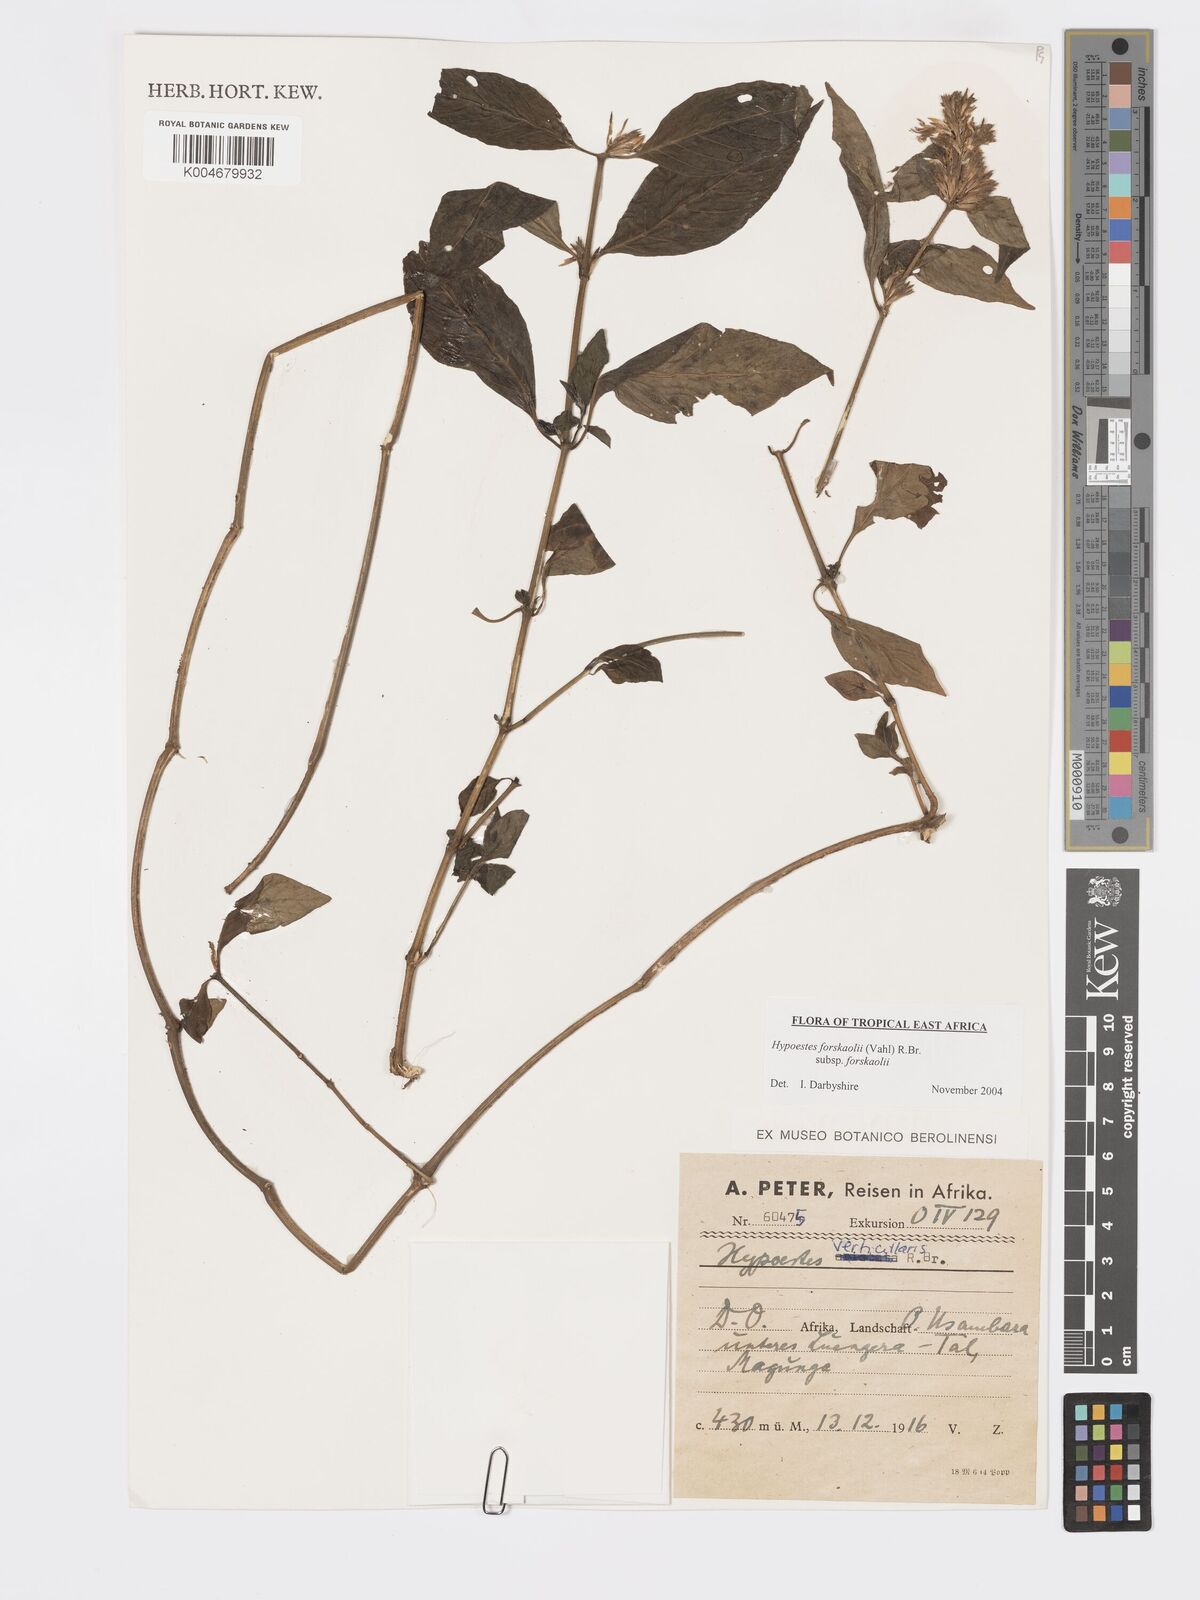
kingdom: Plantae
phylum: Tracheophyta
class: Magnoliopsida
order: Lamiales
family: Acanthaceae
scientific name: Acanthaceae
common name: Acanthaceae
